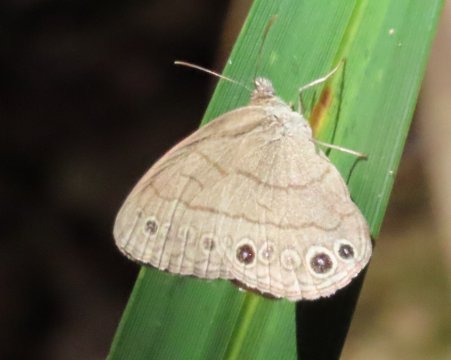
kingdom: Animalia
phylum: Arthropoda
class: Insecta
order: Lepidoptera
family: Nymphalidae
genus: Hermeuptychia
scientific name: Hermeuptychia intricata
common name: Intricate Satyr
